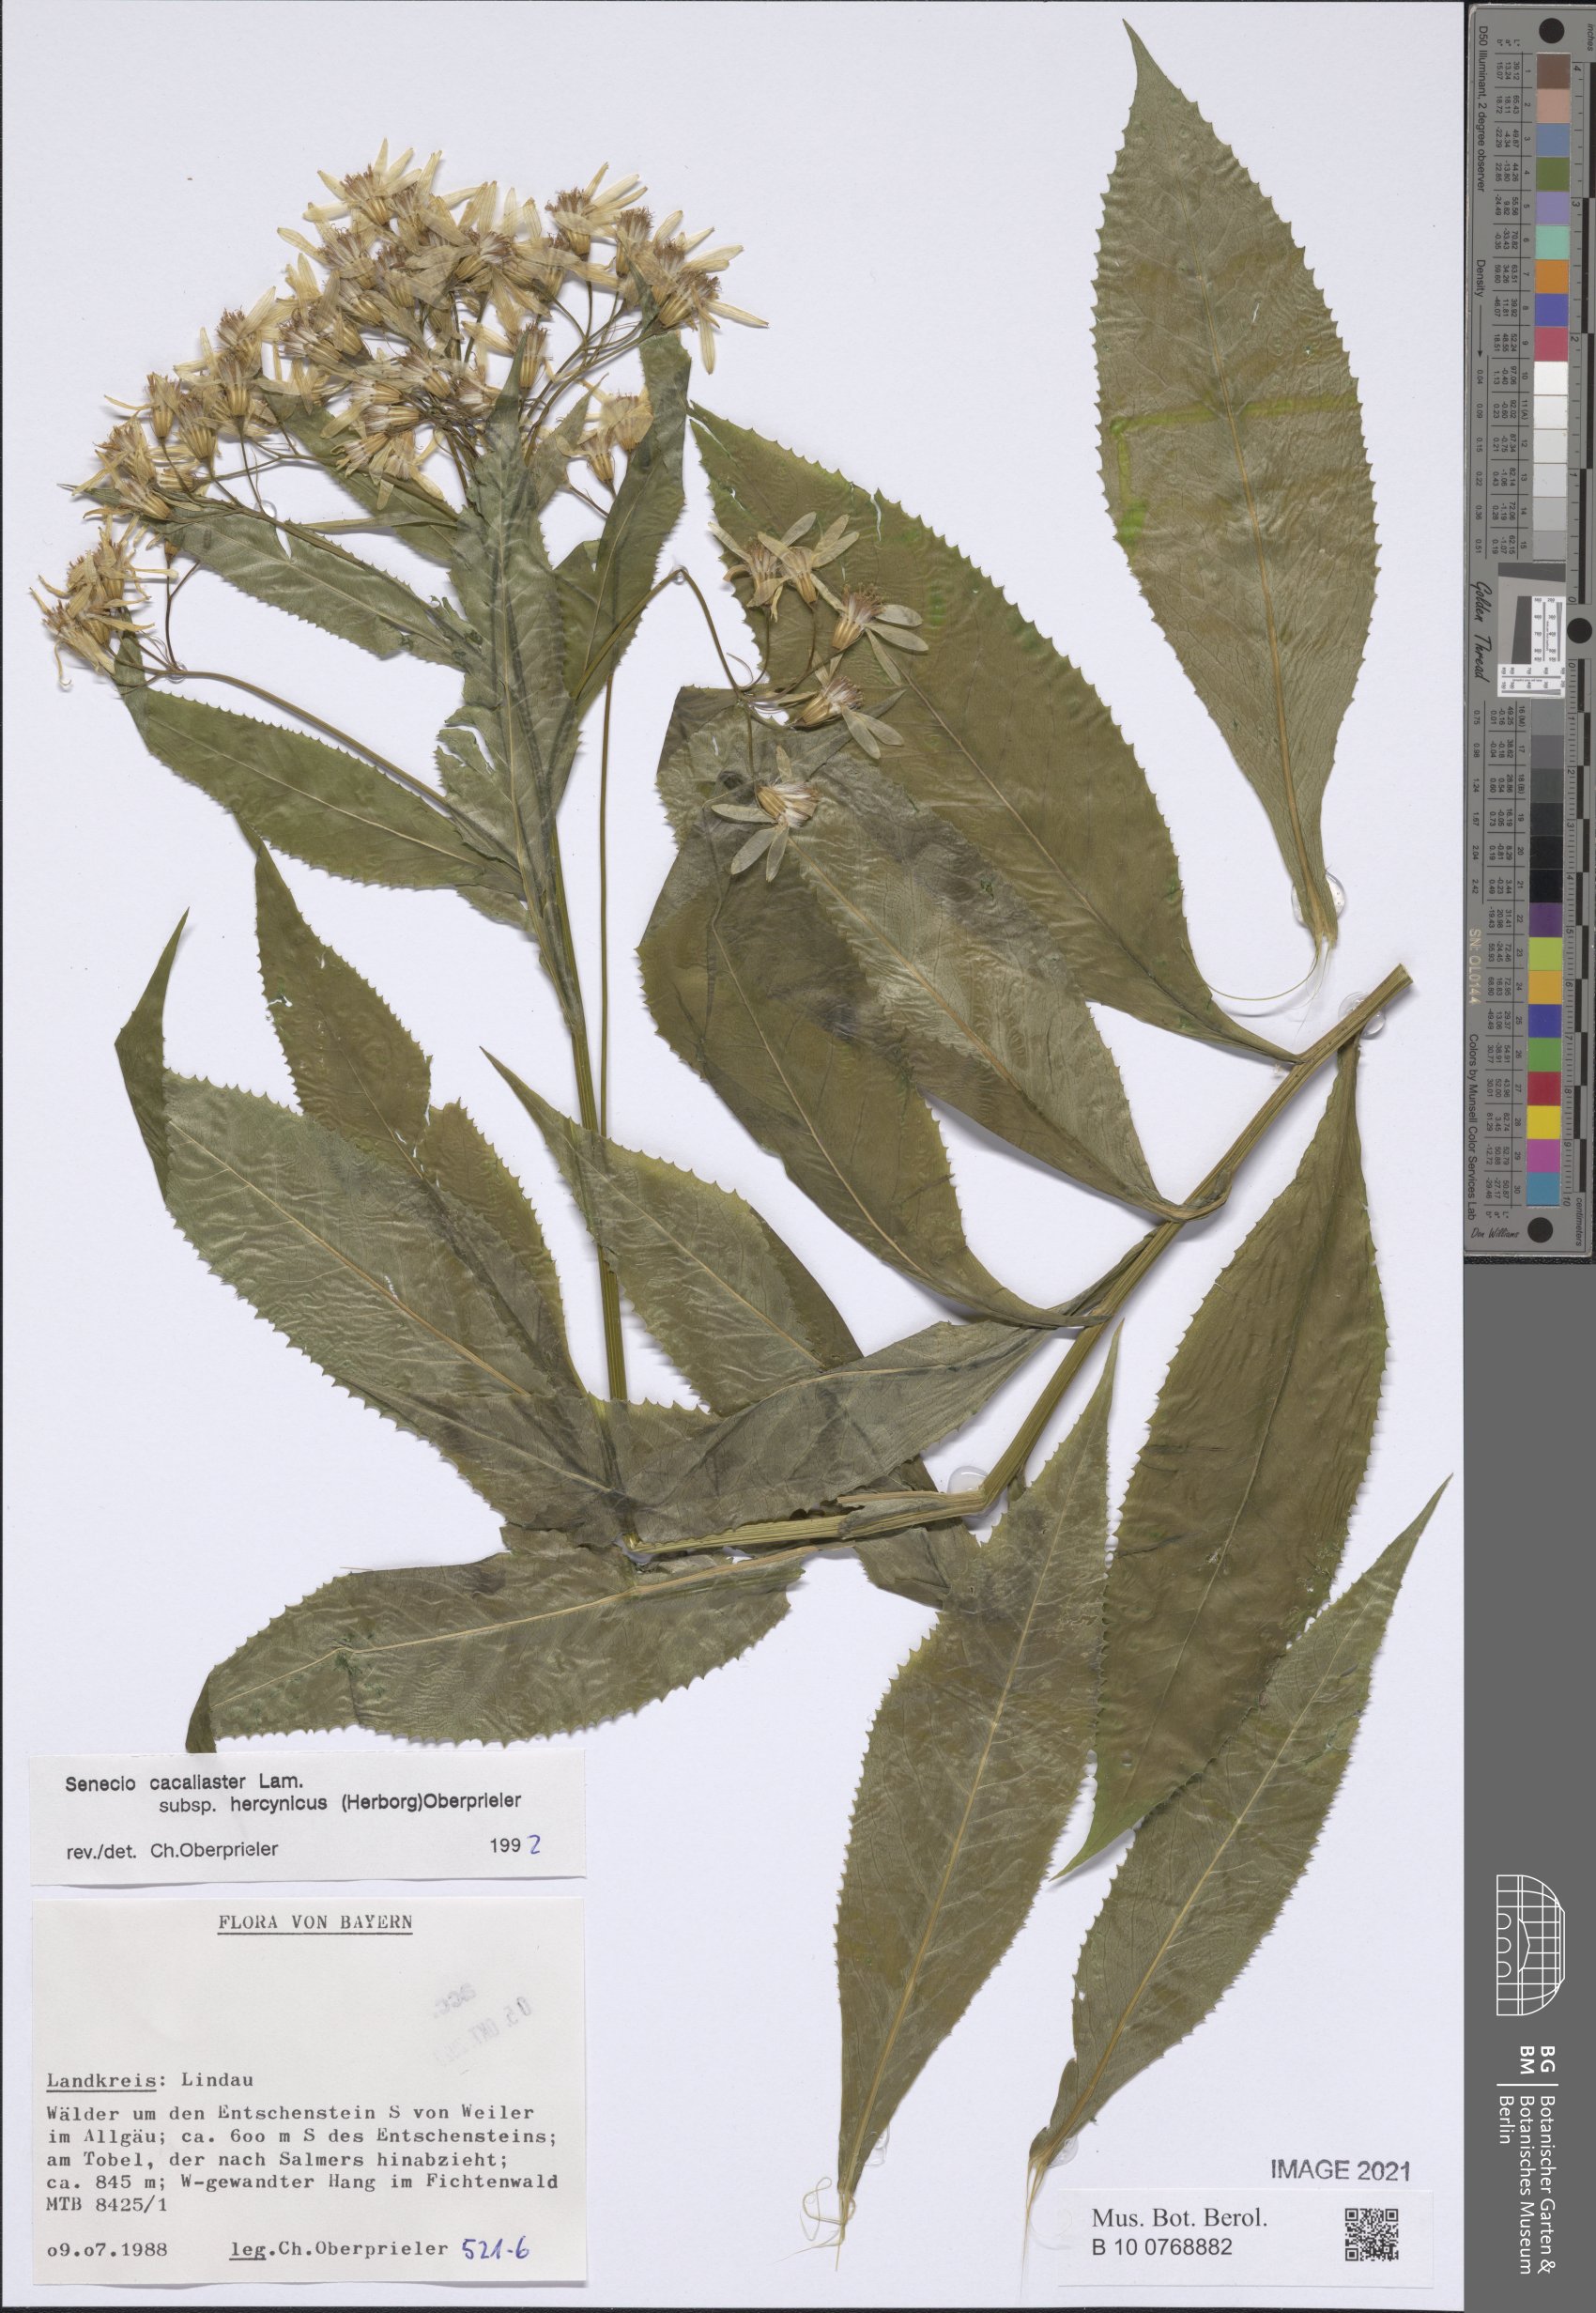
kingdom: Plantae
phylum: Tracheophyta
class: Magnoliopsida
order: Asterales
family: Asteraceae
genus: Senecio
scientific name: Senecio hercynicus
